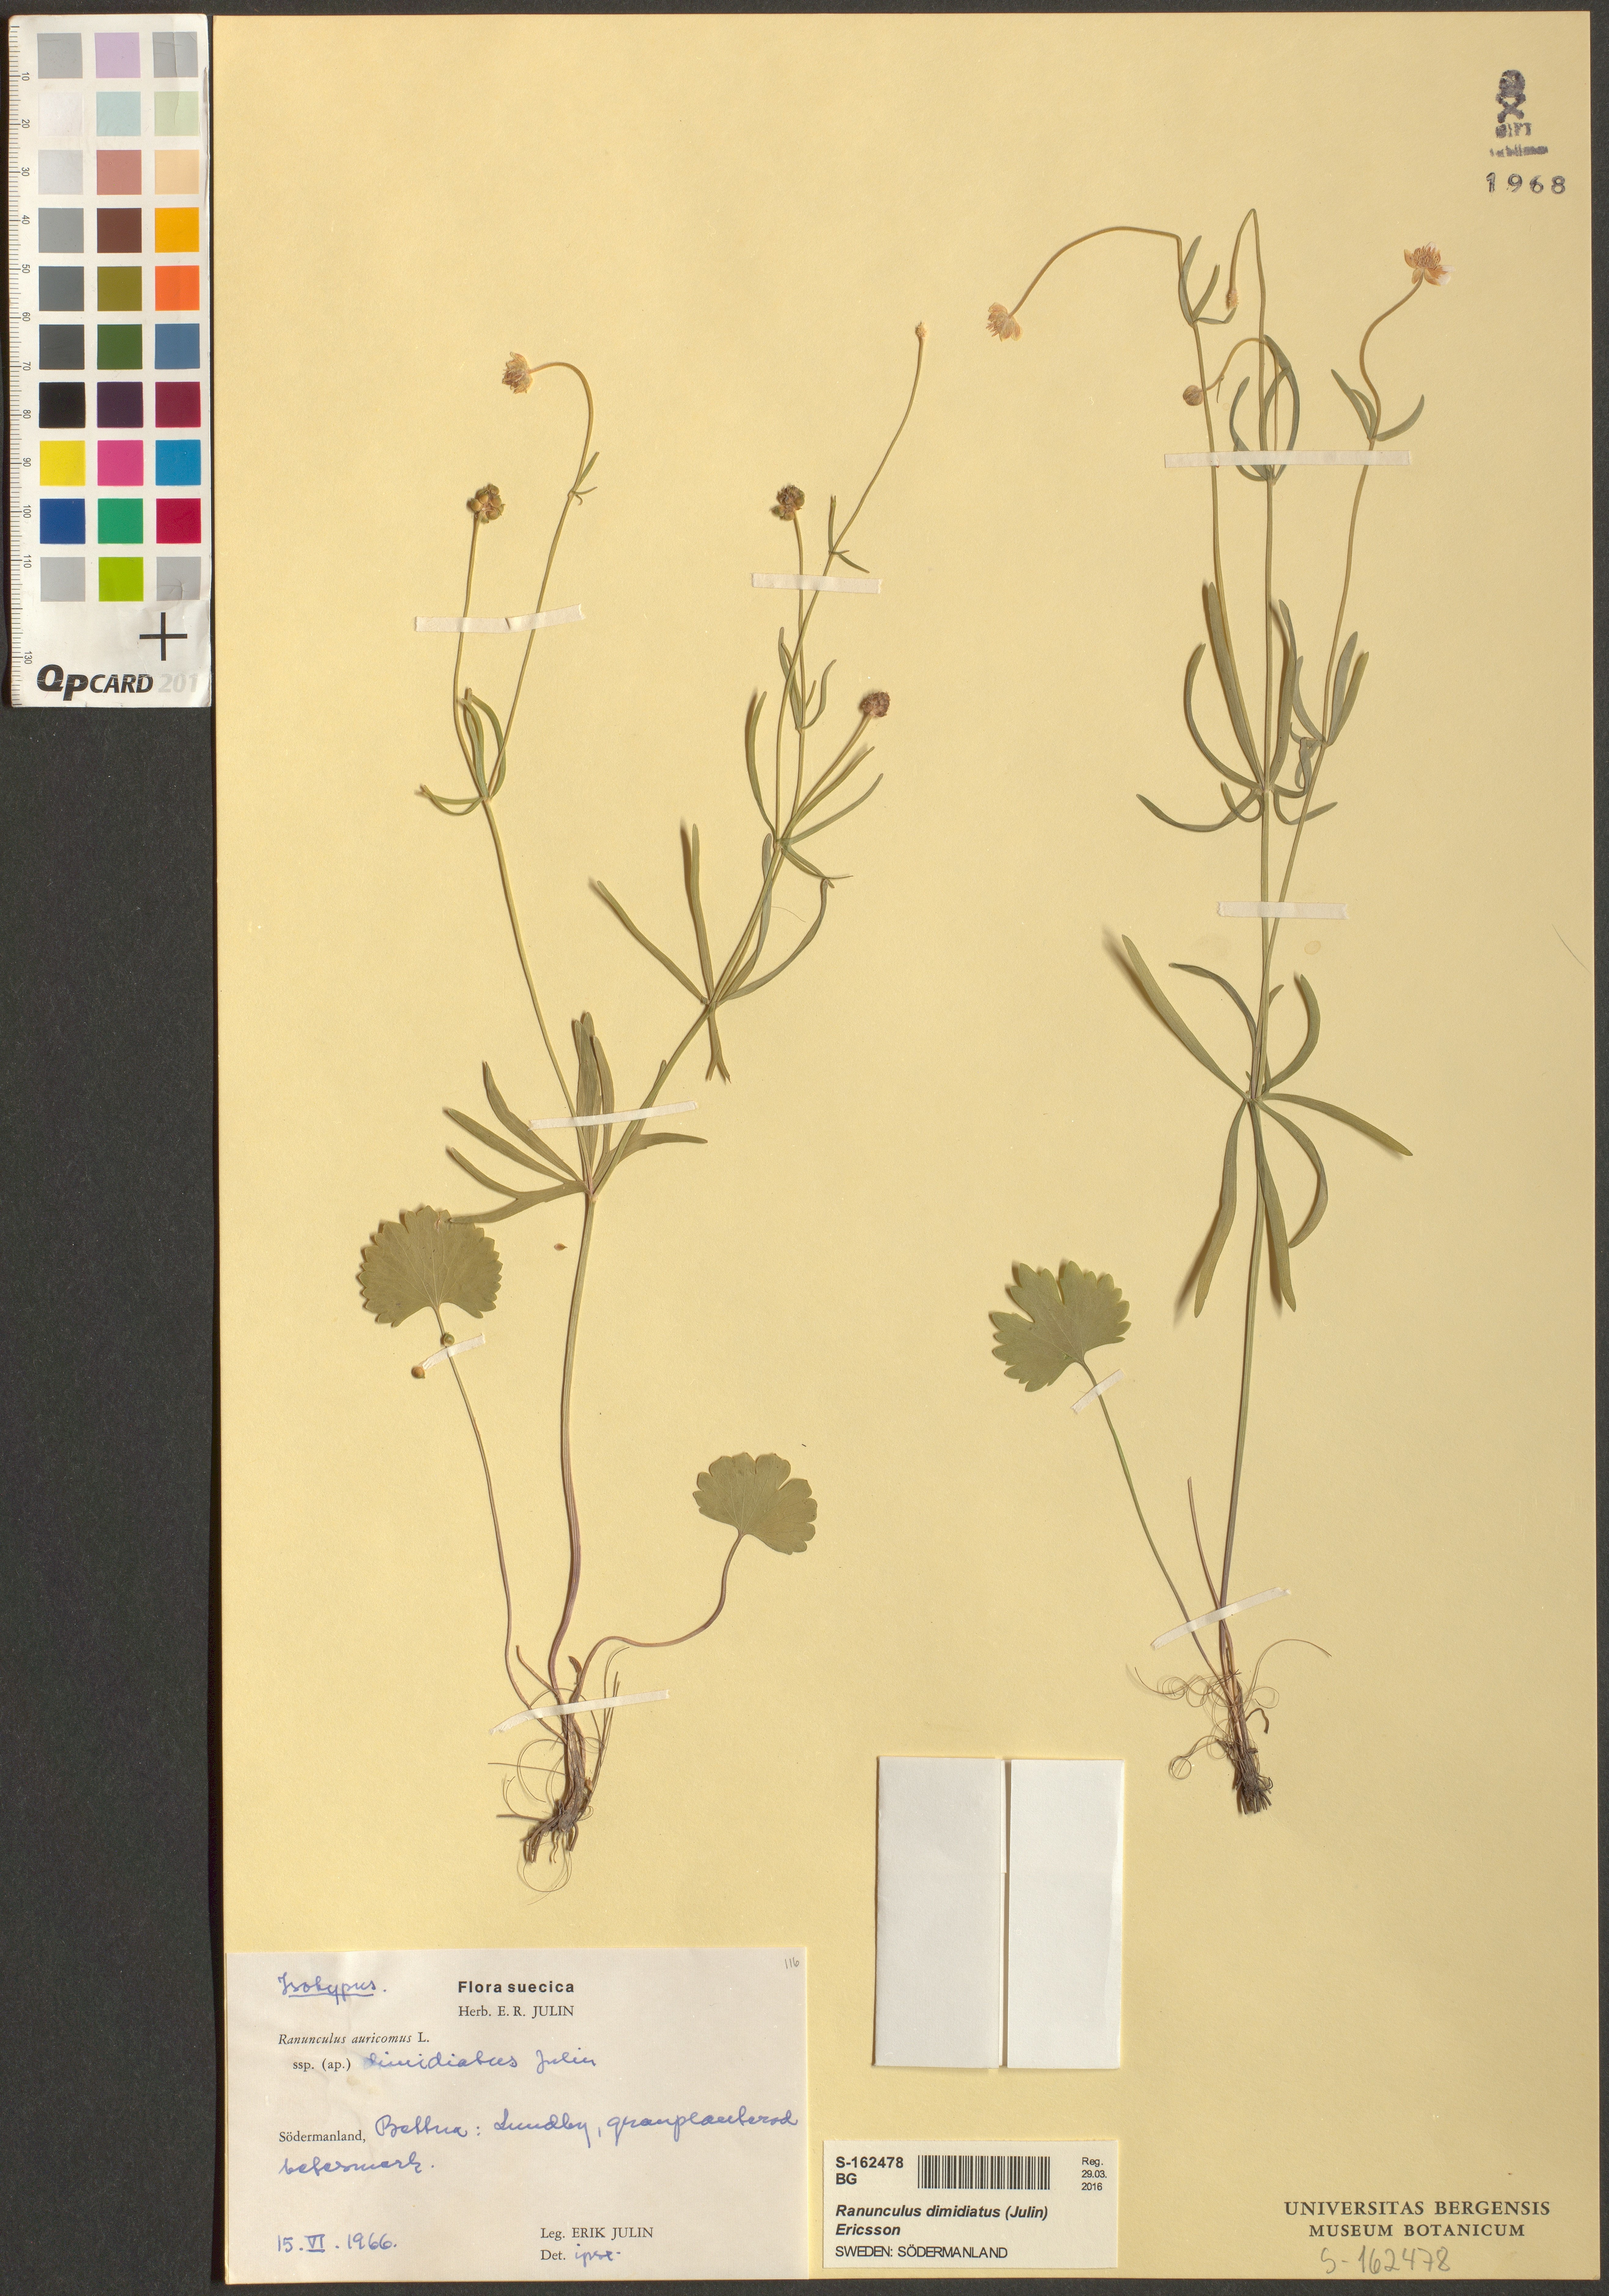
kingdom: Plantae
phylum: Tracheophyta
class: Magnoliopsida
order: Ranunculales
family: Ranunculaceae
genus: Ranunculus
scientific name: Ranunculus dimidiatus
